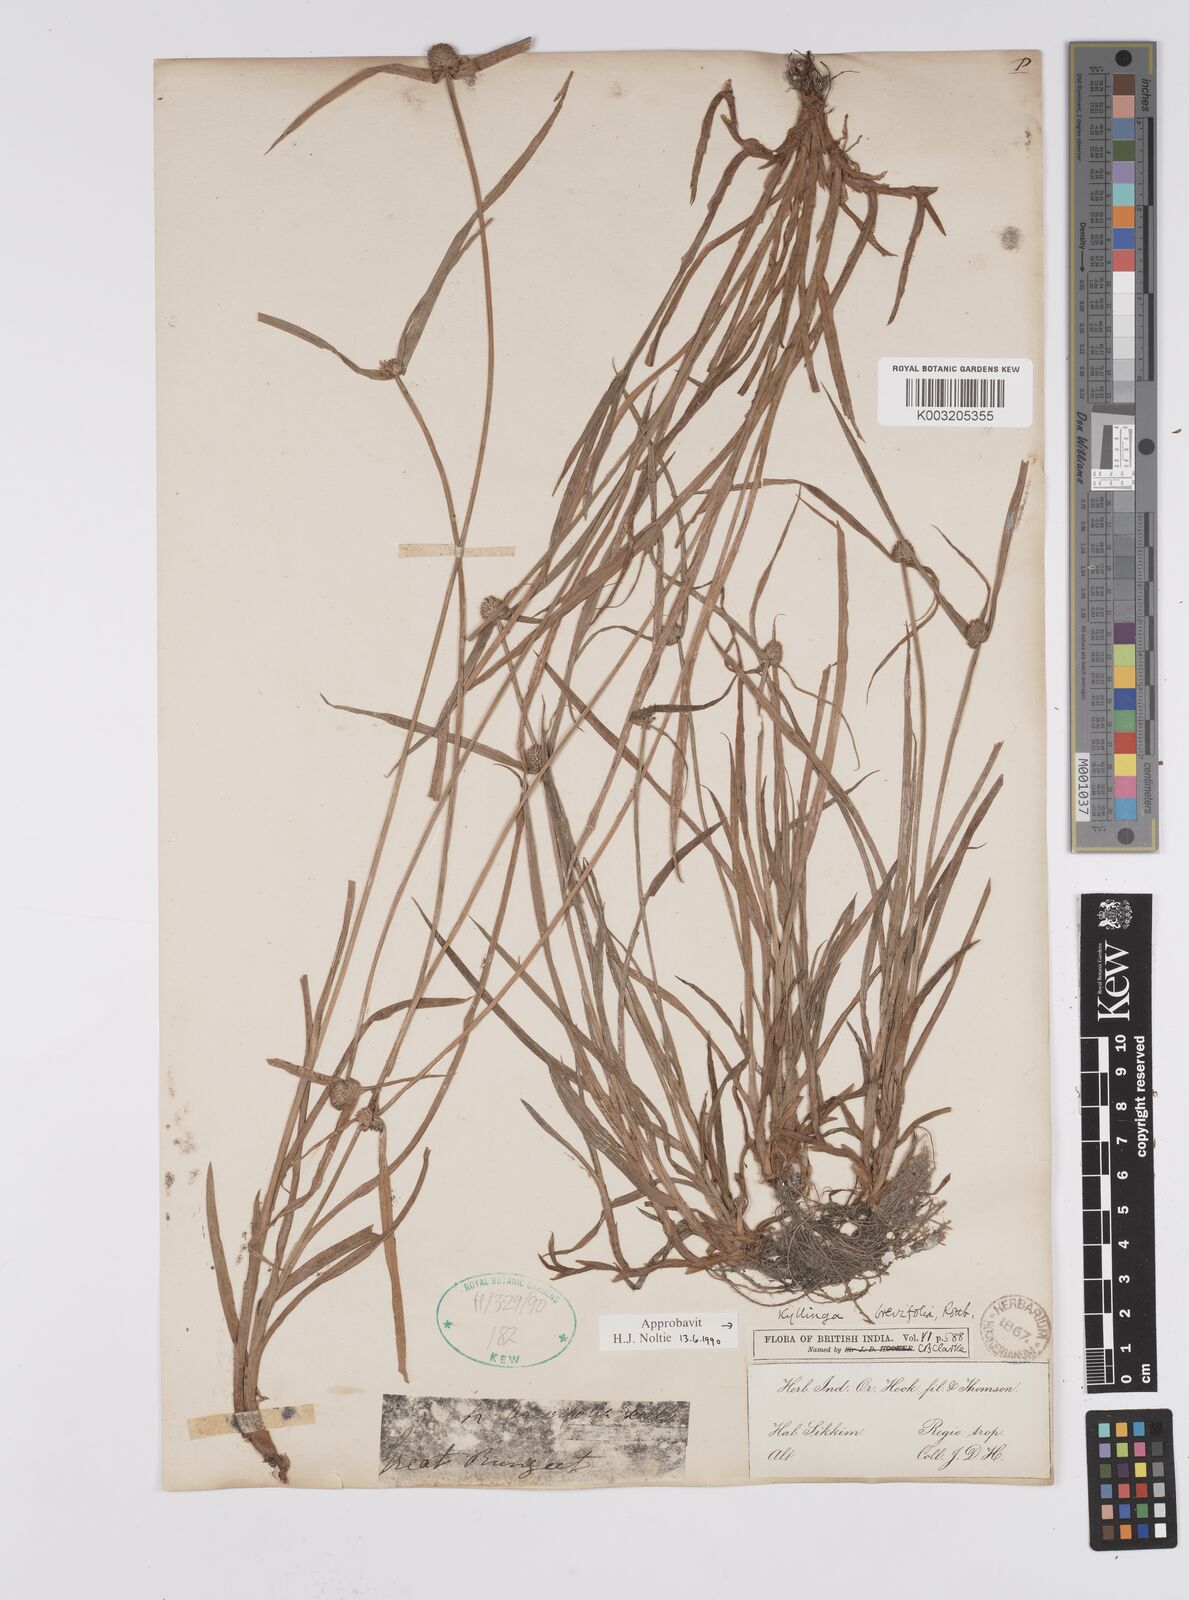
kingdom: Plantae
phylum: Tracheophyta
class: Liliopsida
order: Poales
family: Cyperaceae
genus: Cyperus
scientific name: Cyperus brevifolius
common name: Globe kyllinga
